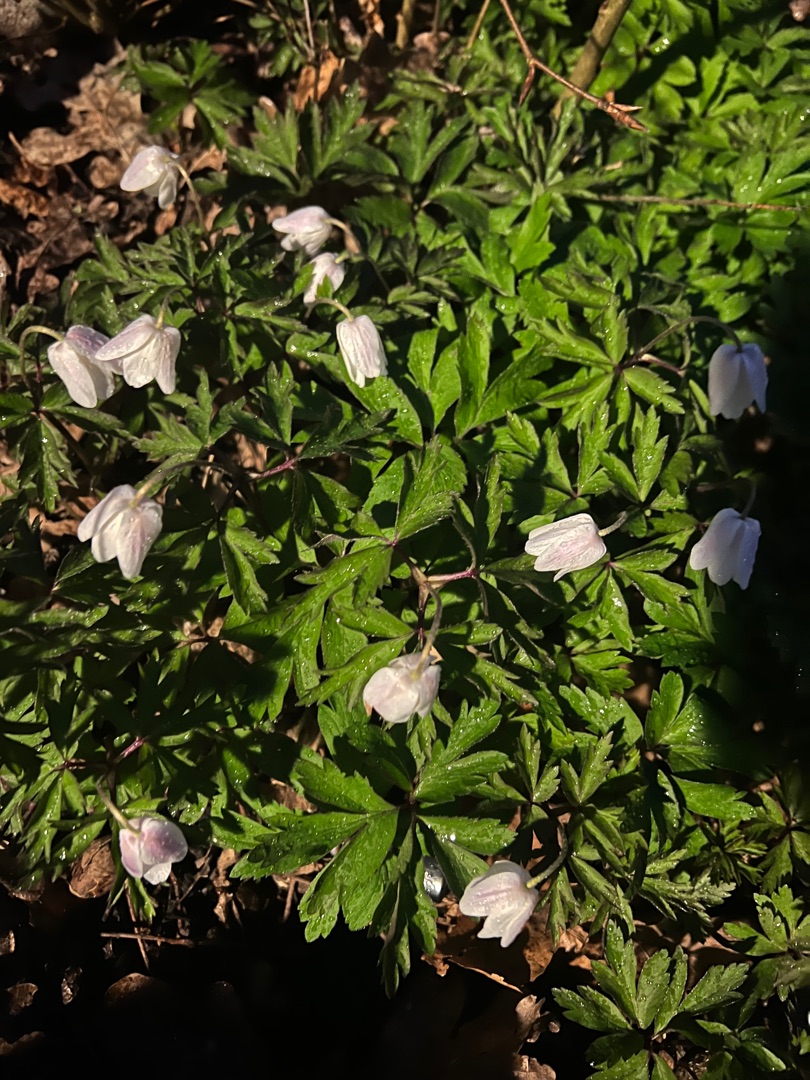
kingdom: Plantae
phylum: Tracheophyta
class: Magnoliopsida
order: Ranunculales
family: Ranunculaceae
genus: Anemone
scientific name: Anemone nemorosa
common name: Hvid anemone
